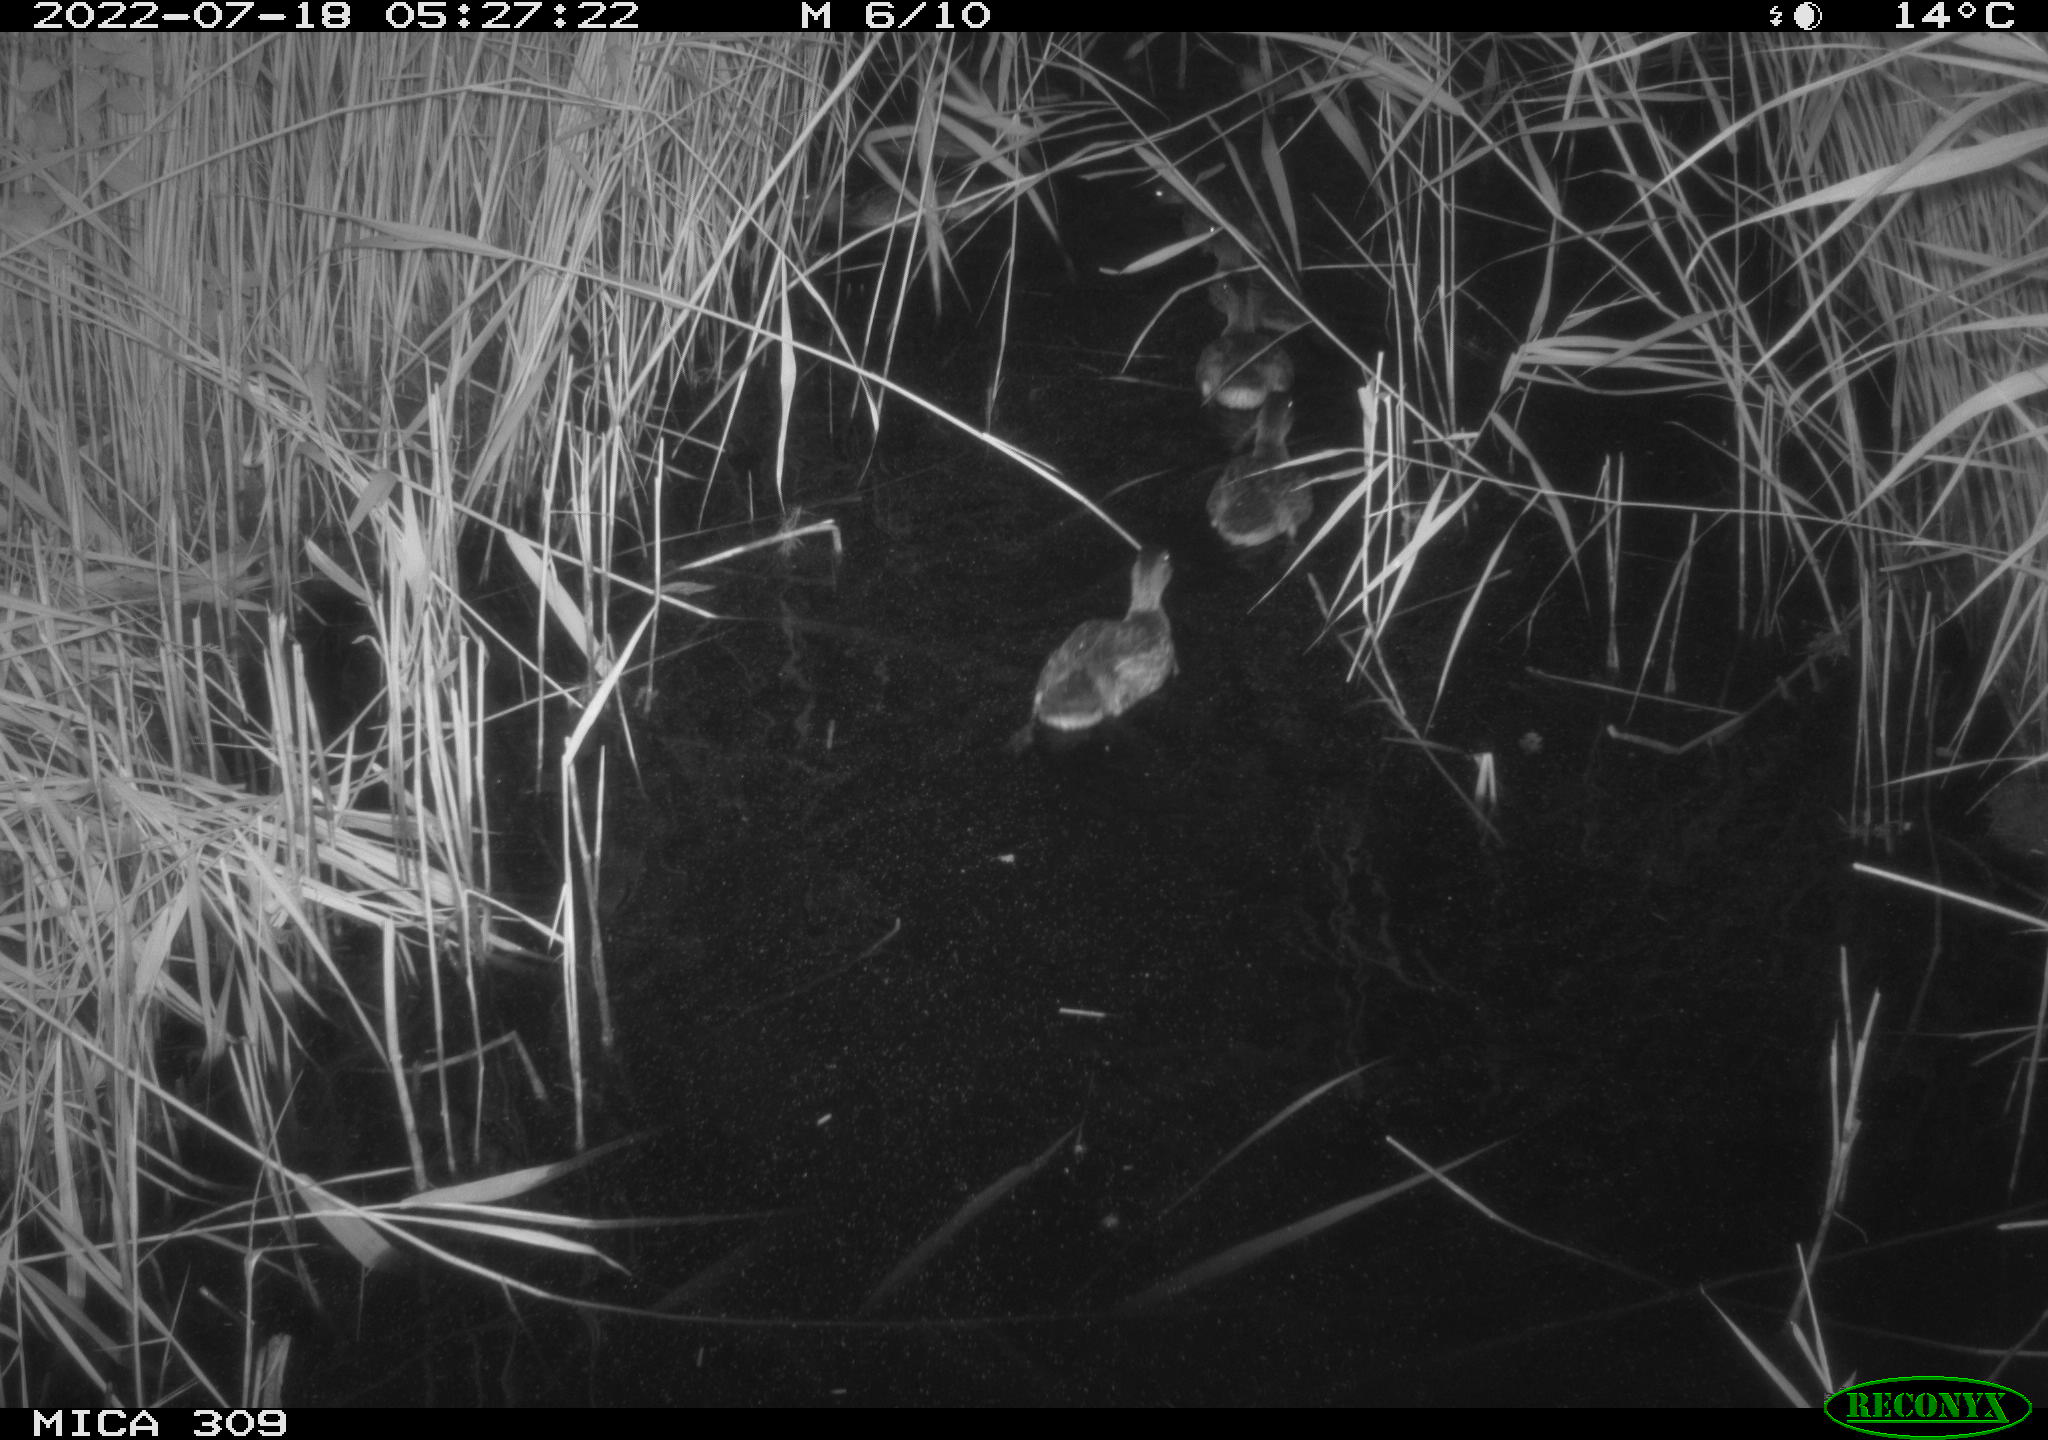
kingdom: Animalia
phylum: Chordata
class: Aves
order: Anseriformes
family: Anatidae
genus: Anas
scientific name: Anas platyrhynchos
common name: Mallard
